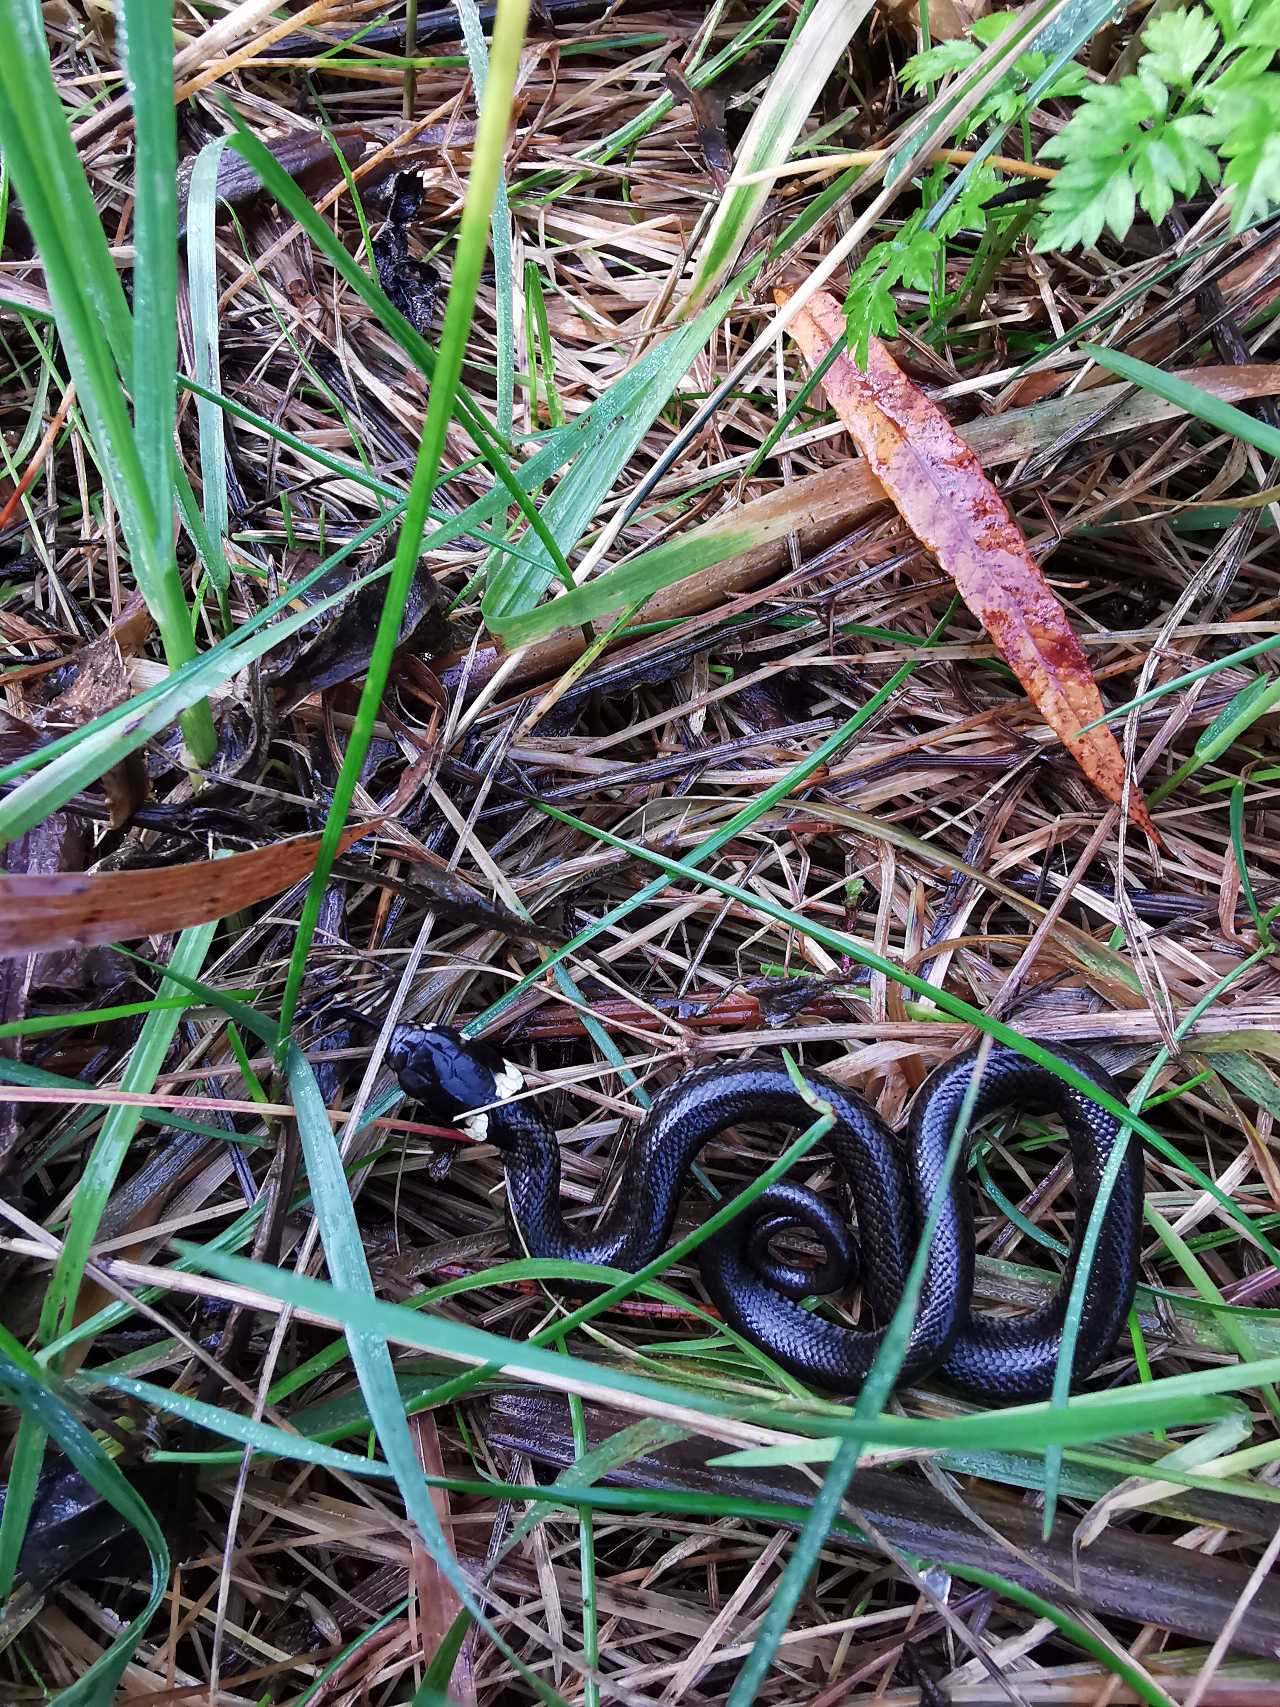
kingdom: Animalia
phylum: Chordata
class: Squamata
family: Colubridae
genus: Natrix
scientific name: Natrix natrix
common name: Snog
